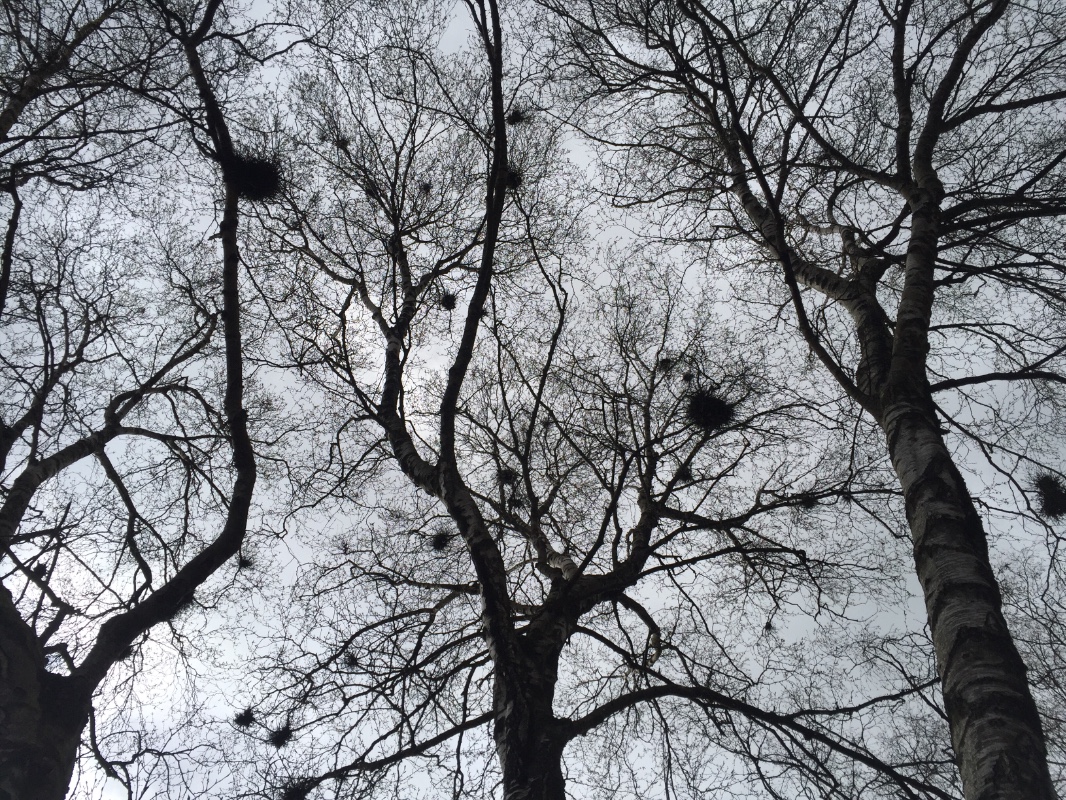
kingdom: Fungi
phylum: Ascomycota
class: Taphrinomycetes
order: Taphrinales
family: Taphrinaceae
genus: Taphrina
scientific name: Taphrina betulina
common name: hekse-sækdug
